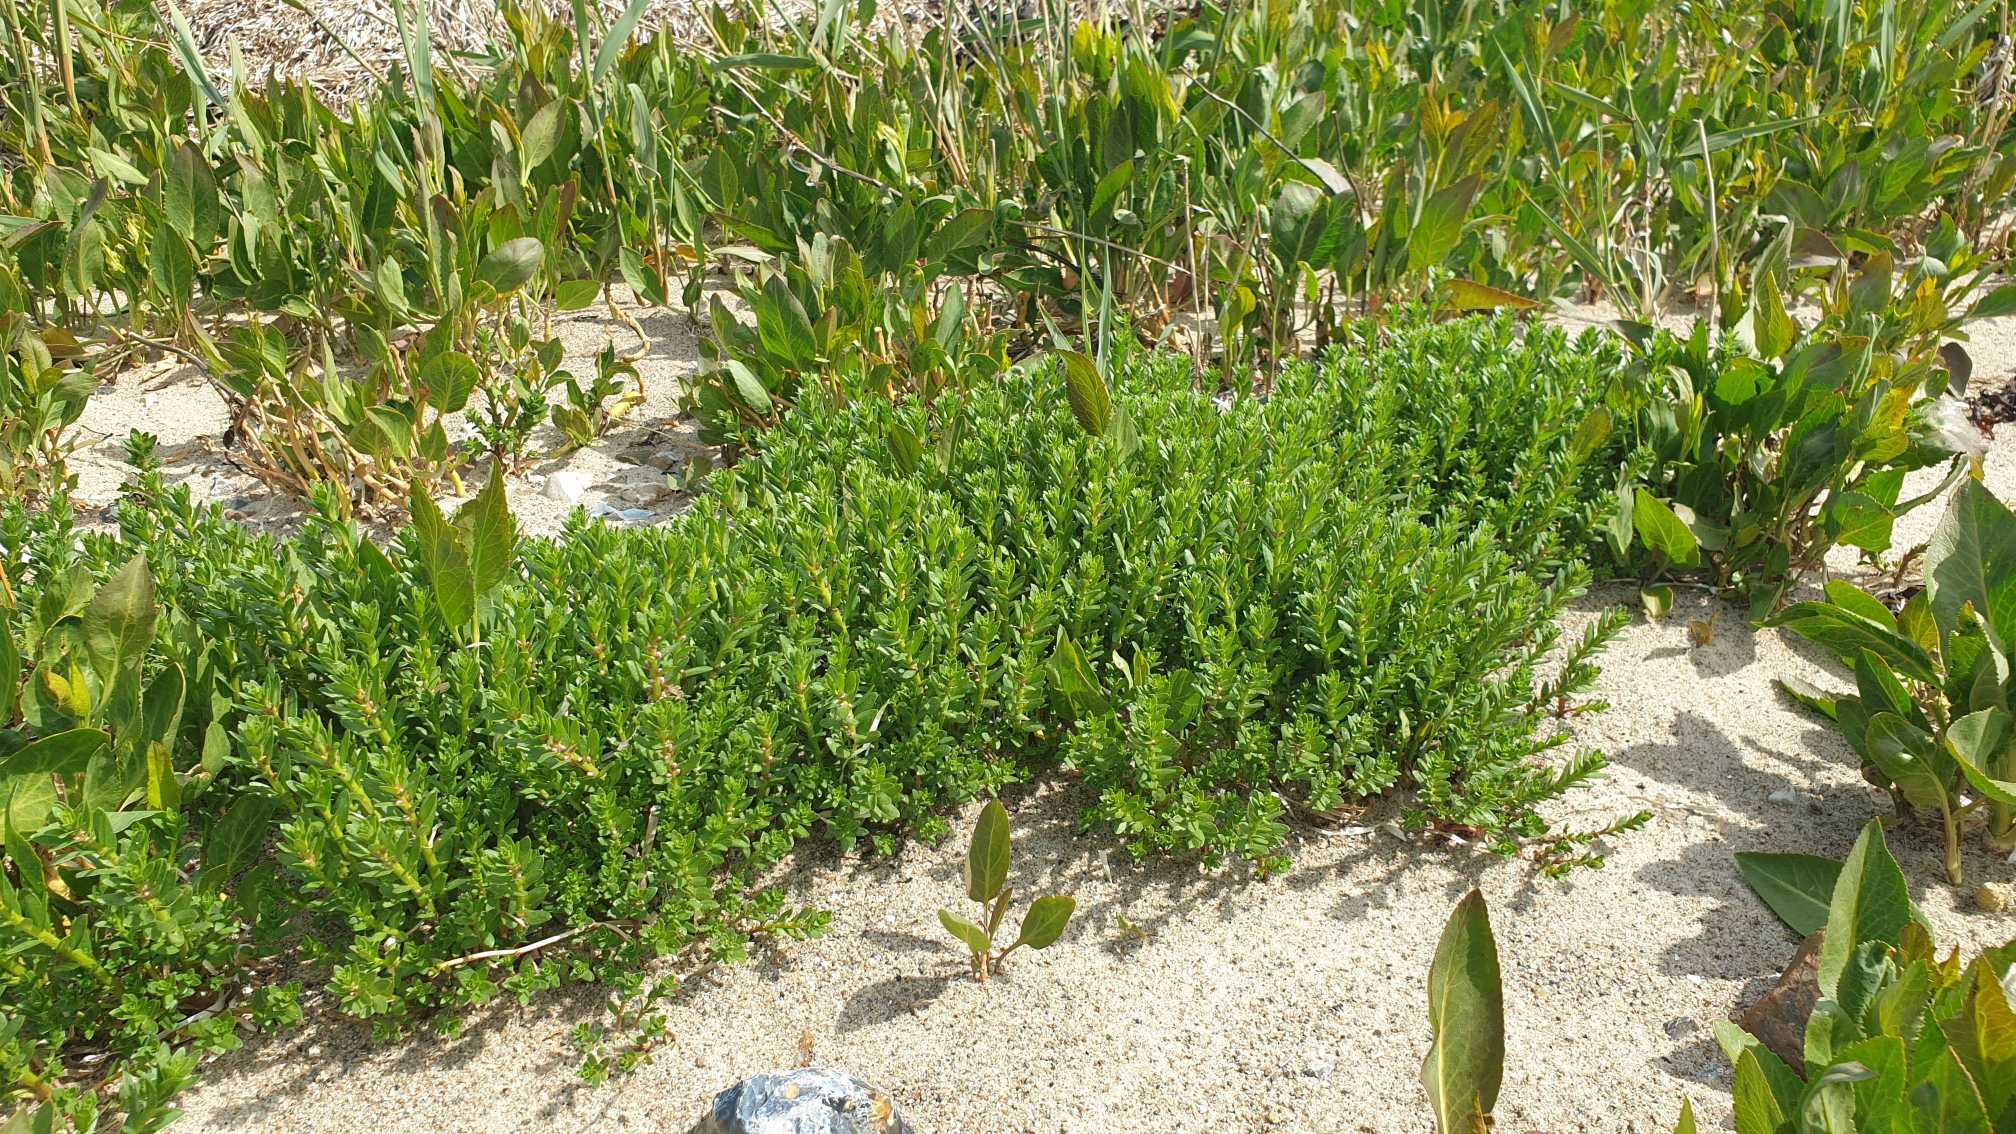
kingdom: Plantae
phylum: Tracheophyta
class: Magnoliopsida
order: Ericales
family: Primulaceae
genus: Lysimachia
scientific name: Lysimachia maritima
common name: Sandkryb
